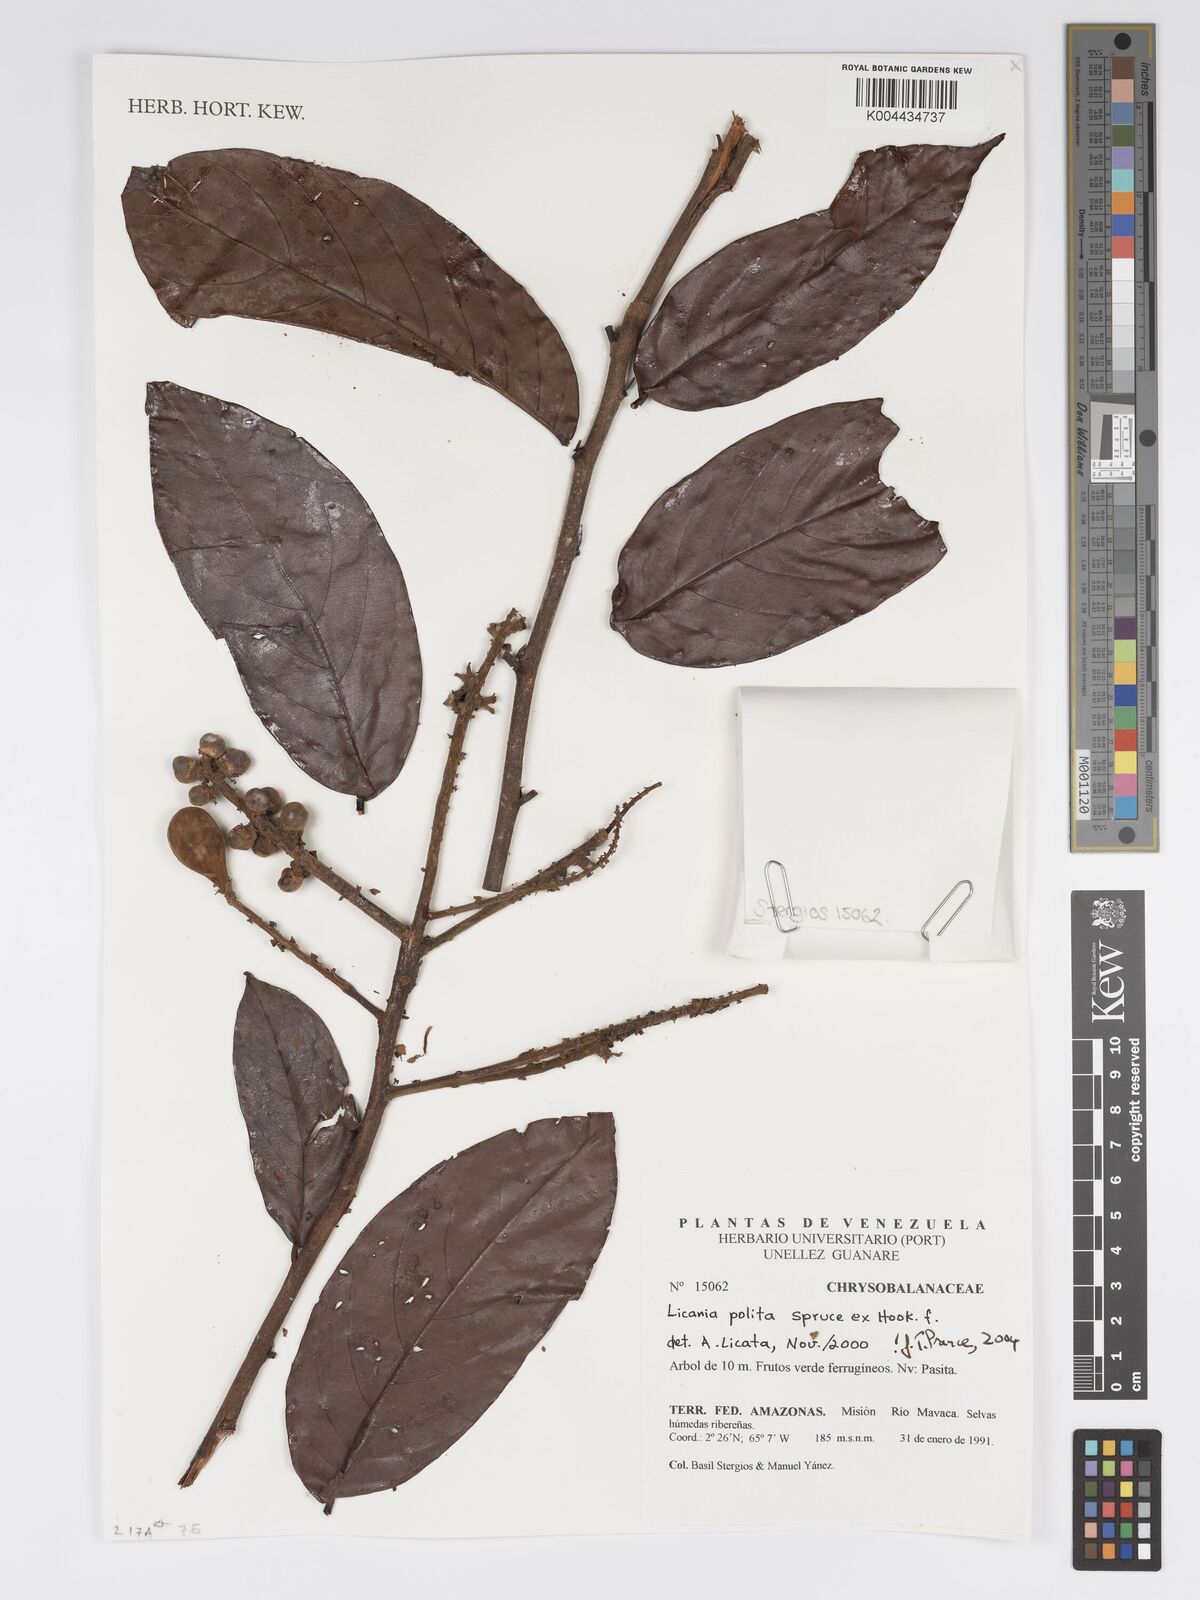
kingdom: Plantae
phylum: Tracheophyta
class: Magnoliopsida
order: Malpighiales
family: Chrysobalanaceae
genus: Licania
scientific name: Licania polita
